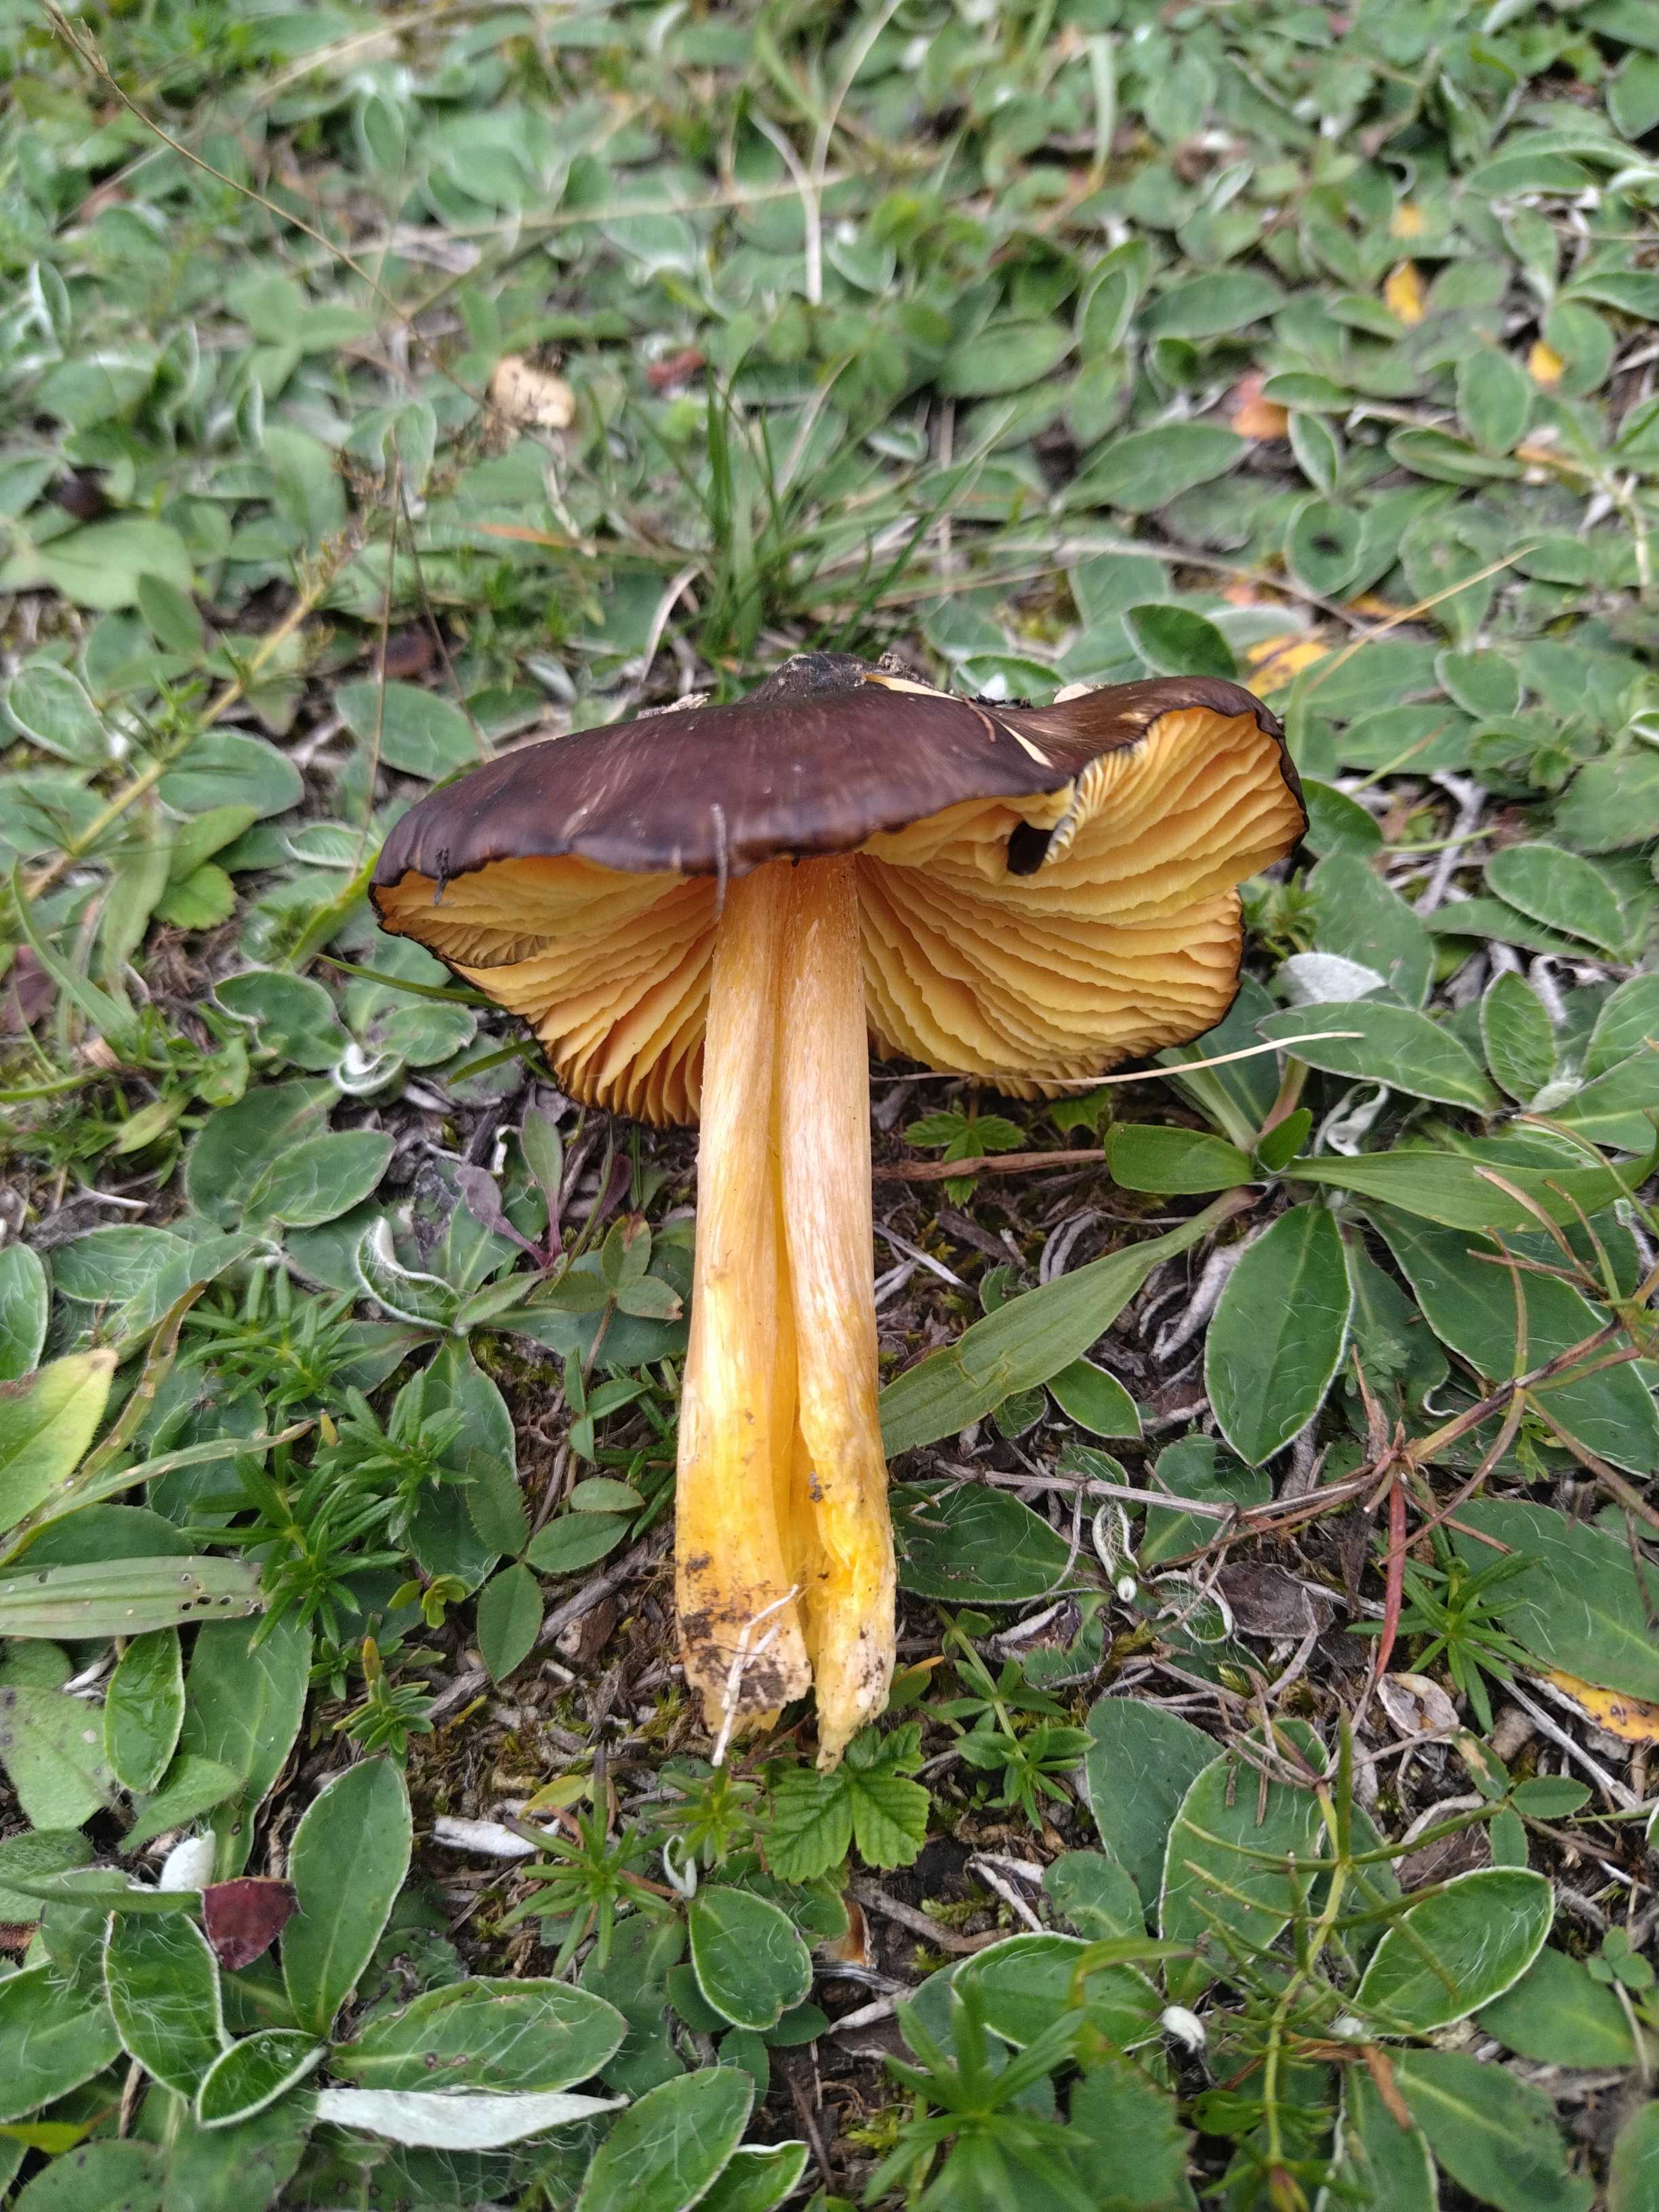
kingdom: Fungi
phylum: Basidiomycota
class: Agaricomycetes
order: Agaricales
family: Hygrophoraceae
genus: Hygrocybe
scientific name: Hygrocybe spadicea
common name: daddelbrun vokshat
